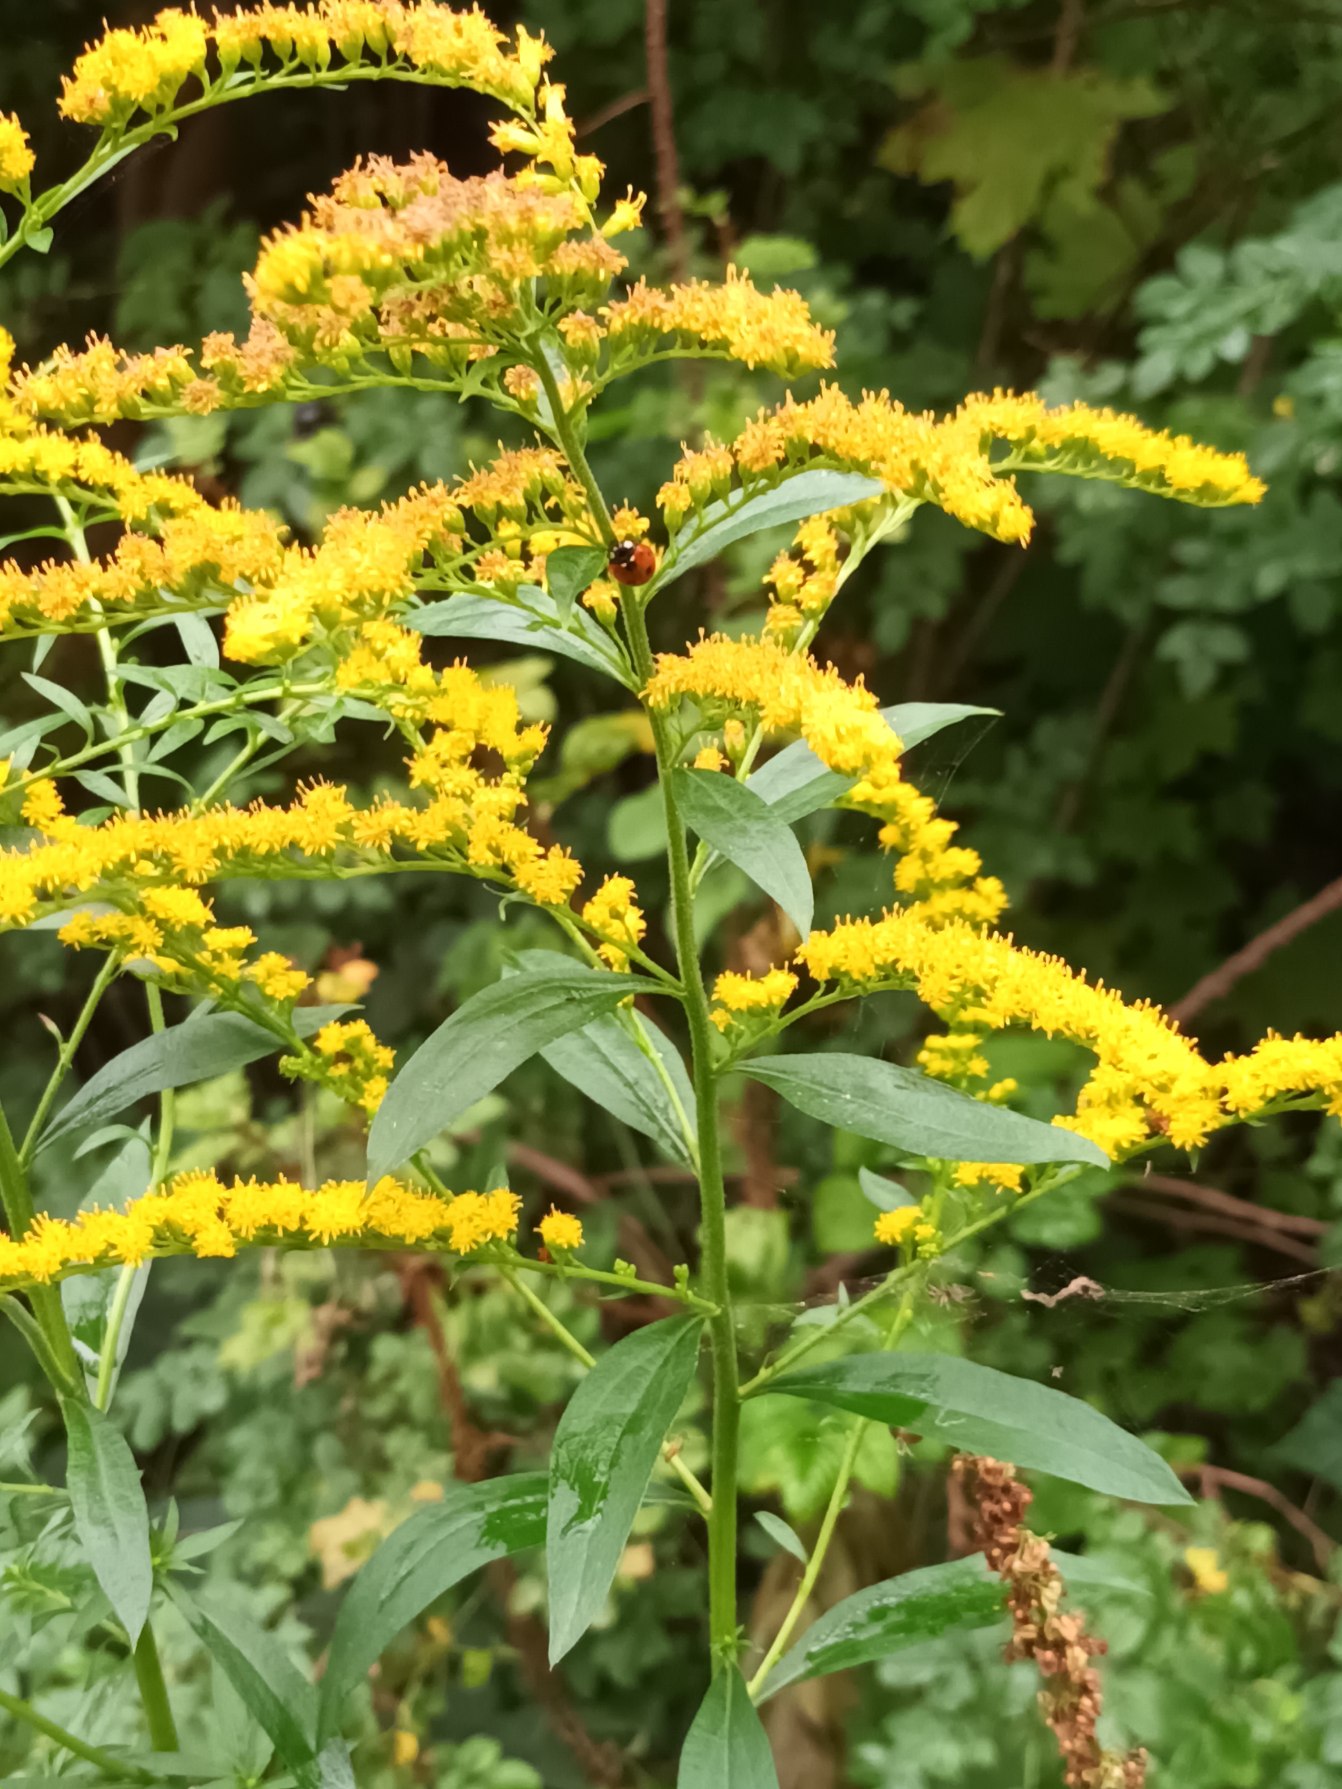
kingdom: Plantae
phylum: Tracheophyta
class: Magnoliopsida
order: Asterales
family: Asteraceae
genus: Solidago
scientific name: Solidago gigantea
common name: Sildig gyldenris
